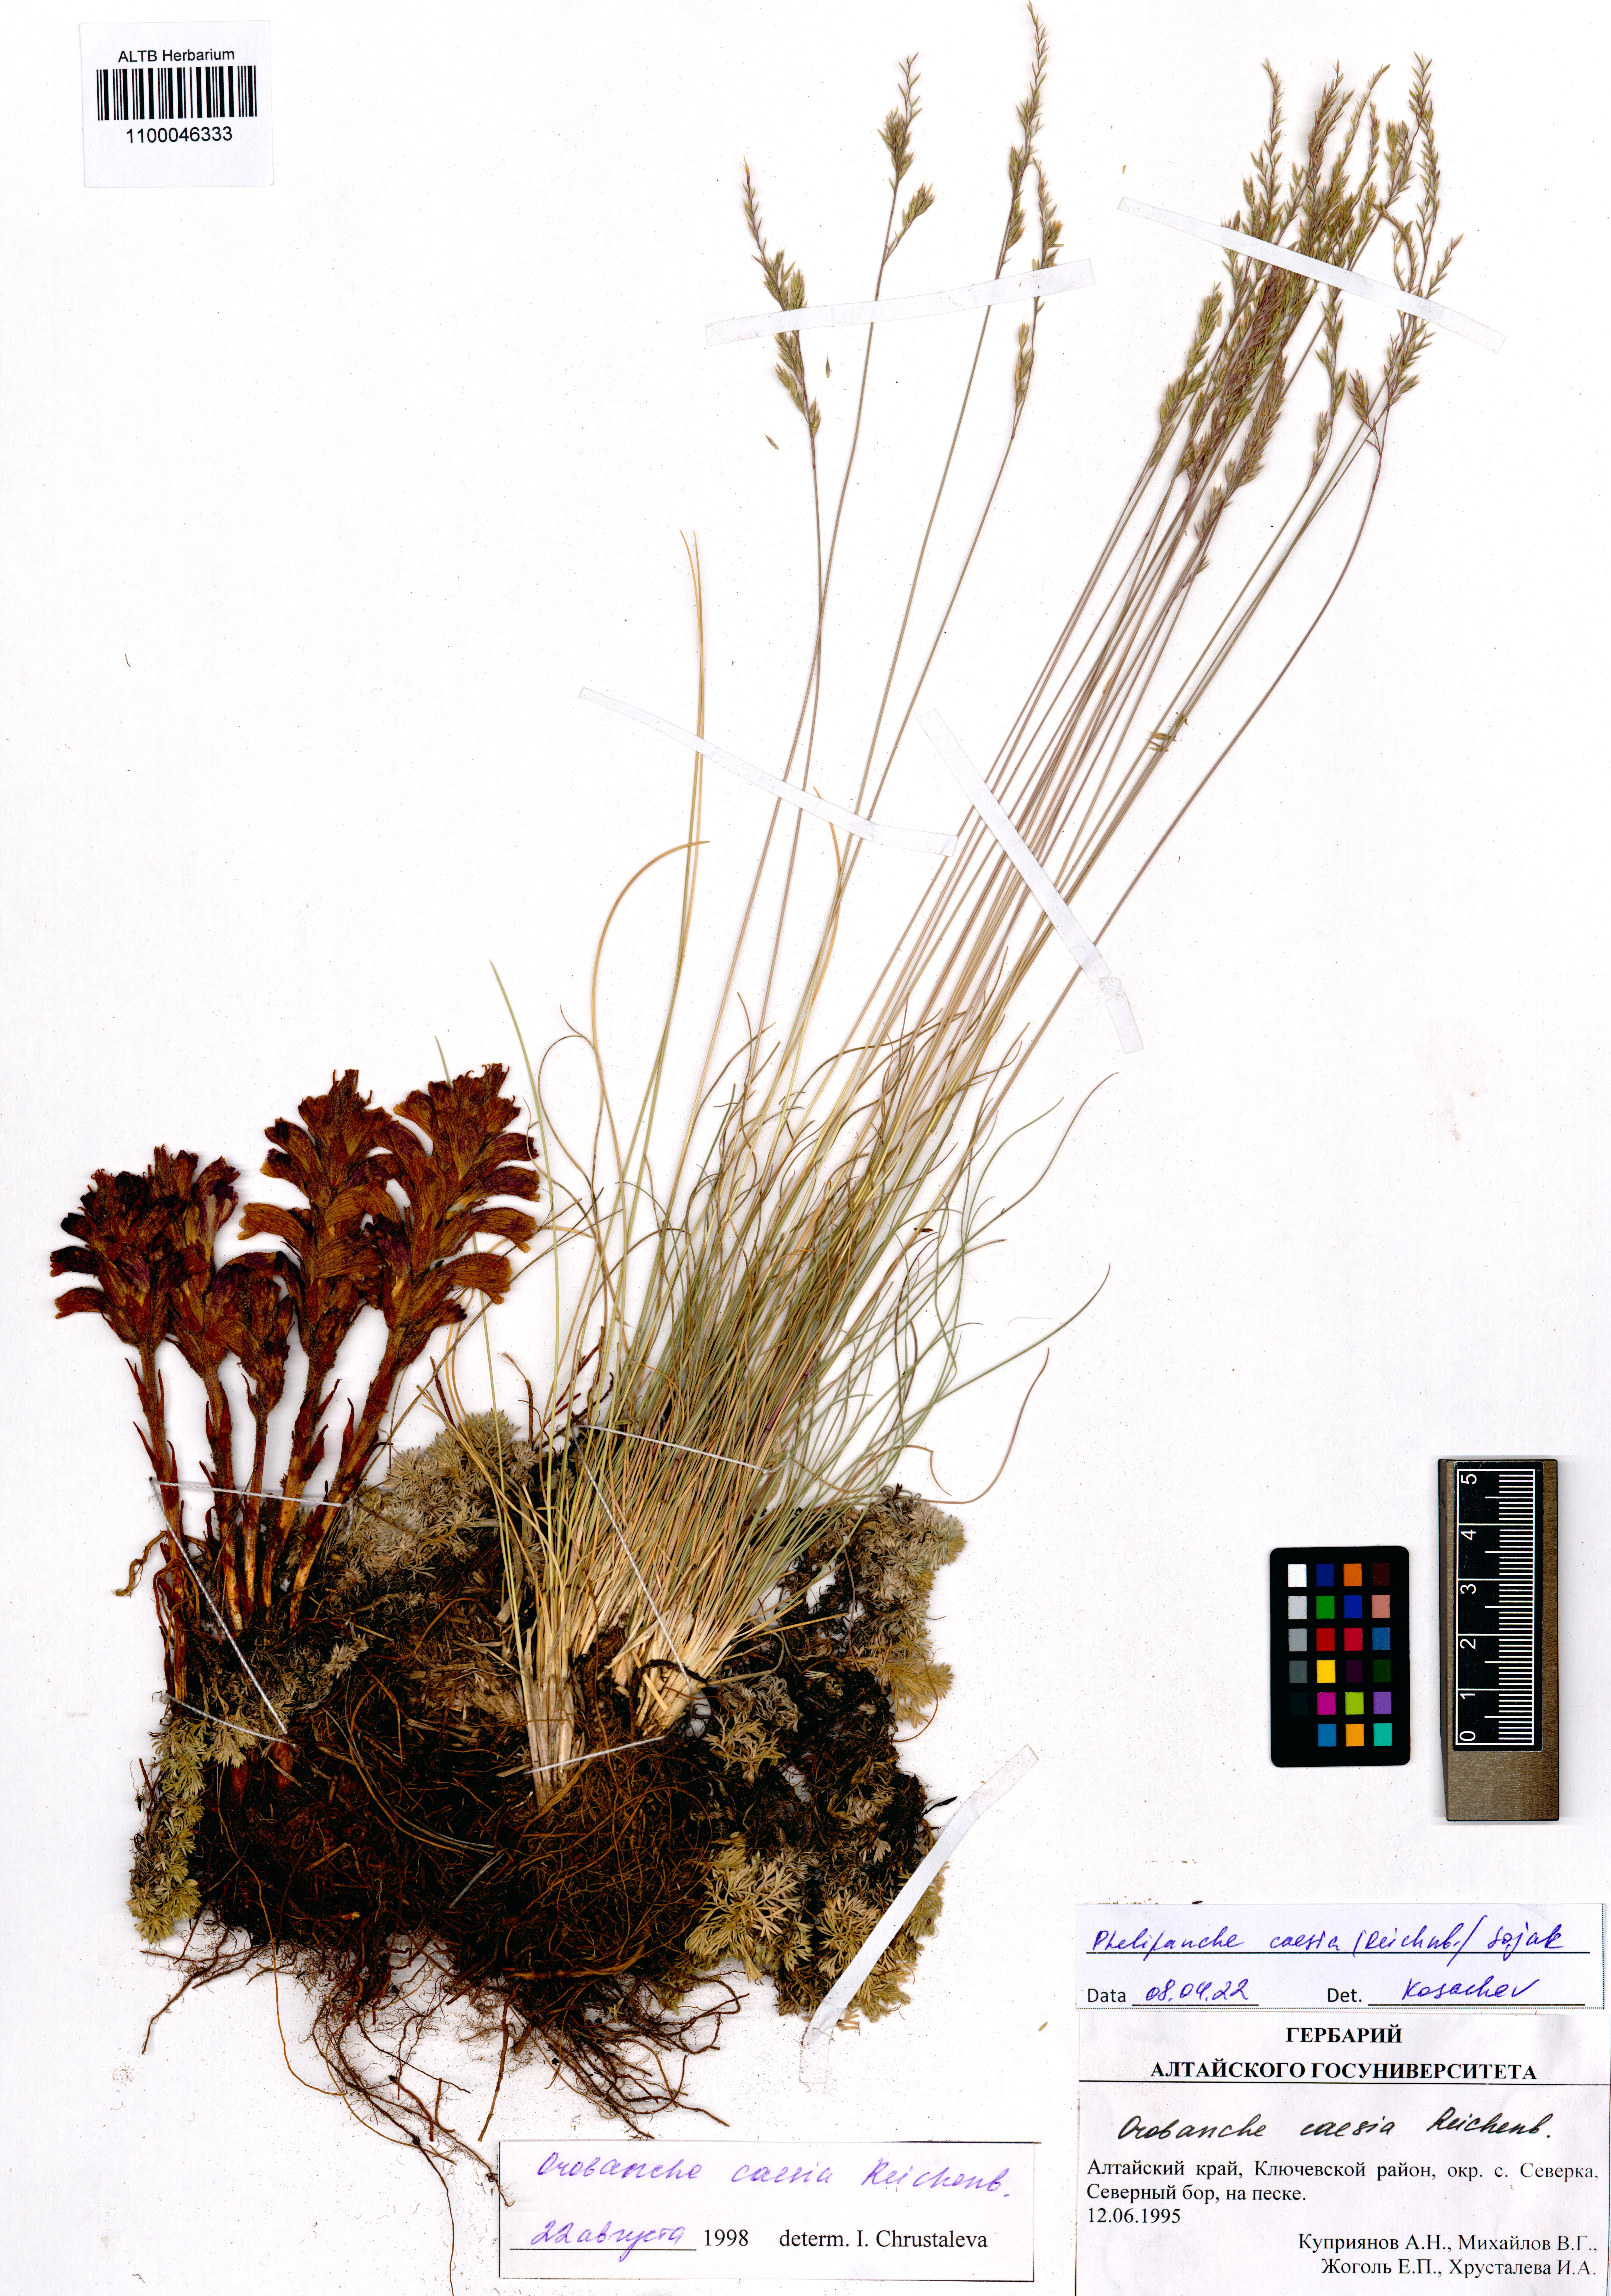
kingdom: Plantae
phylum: Tracheophyta
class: Magnoliopsida
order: Lamiales
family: Orobanchaceae
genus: Phelipanche
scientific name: Phelipanche caesia
